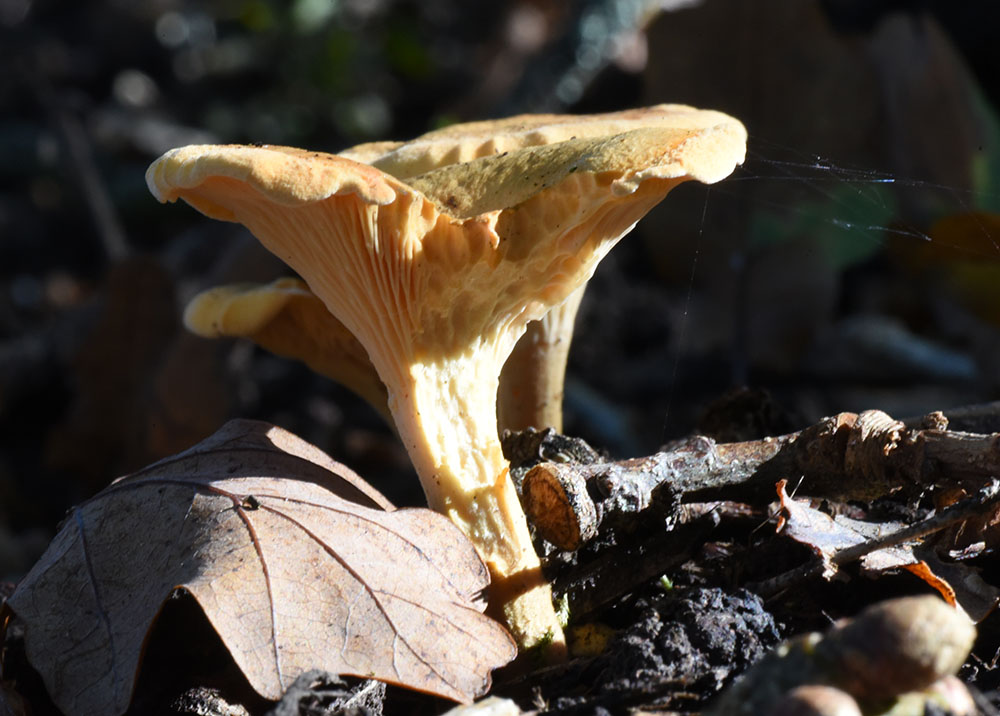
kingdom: Fungi
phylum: Basidiomycota
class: Agaricomycetes
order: Boletales
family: Hygrophoropsidaceae
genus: Hygrophoropsis
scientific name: Hygrophoropsis aurantiaca
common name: False chanterelle
